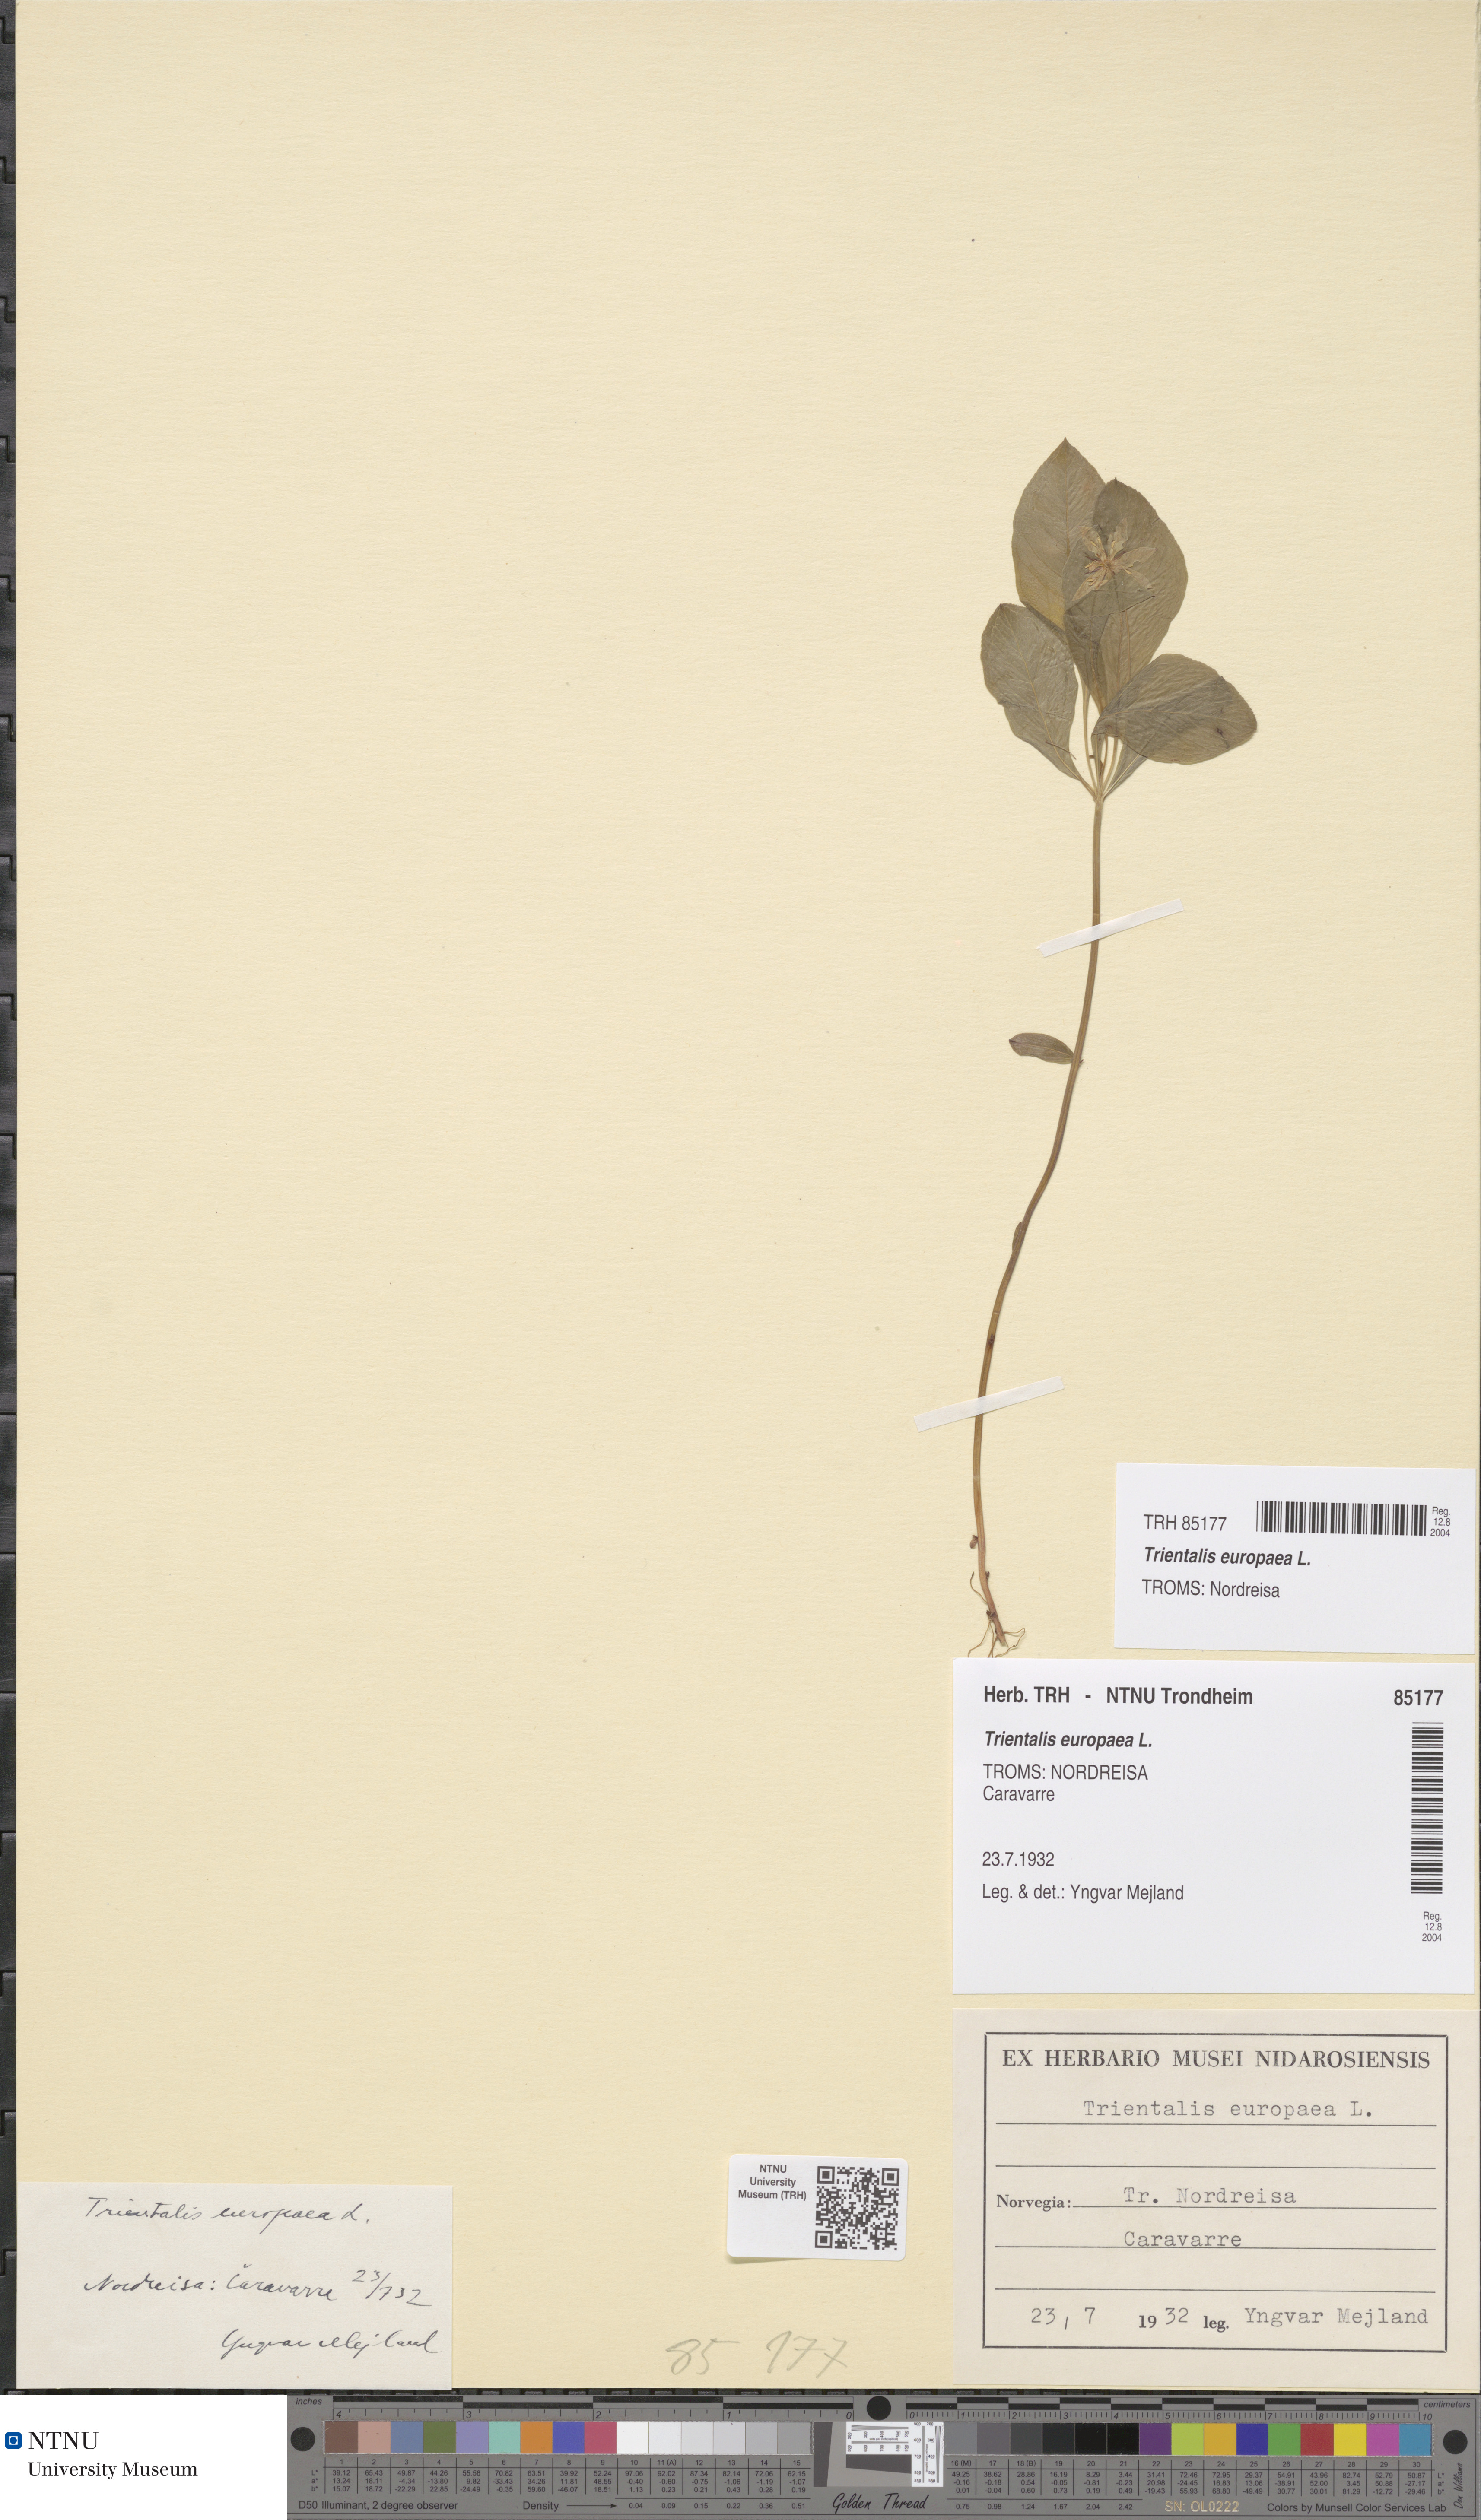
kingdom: Plantae
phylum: Tracheophyta
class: Magnoliopsida
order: Ericales
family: Primulaceae
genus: Lysimachia
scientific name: Lysimachia europaea
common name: Arctic starflower
